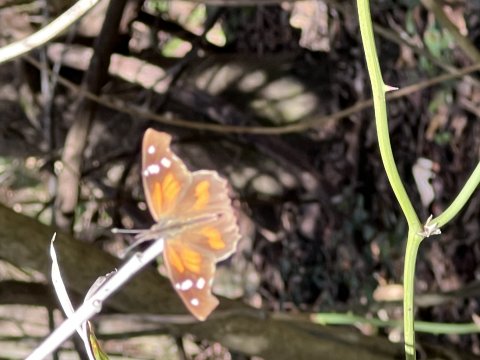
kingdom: Animalia
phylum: Arthropoda
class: Insecta
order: Lepidoptera
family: Nymphalidae
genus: Libytheana
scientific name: Libytheana carinenta
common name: American Snout
